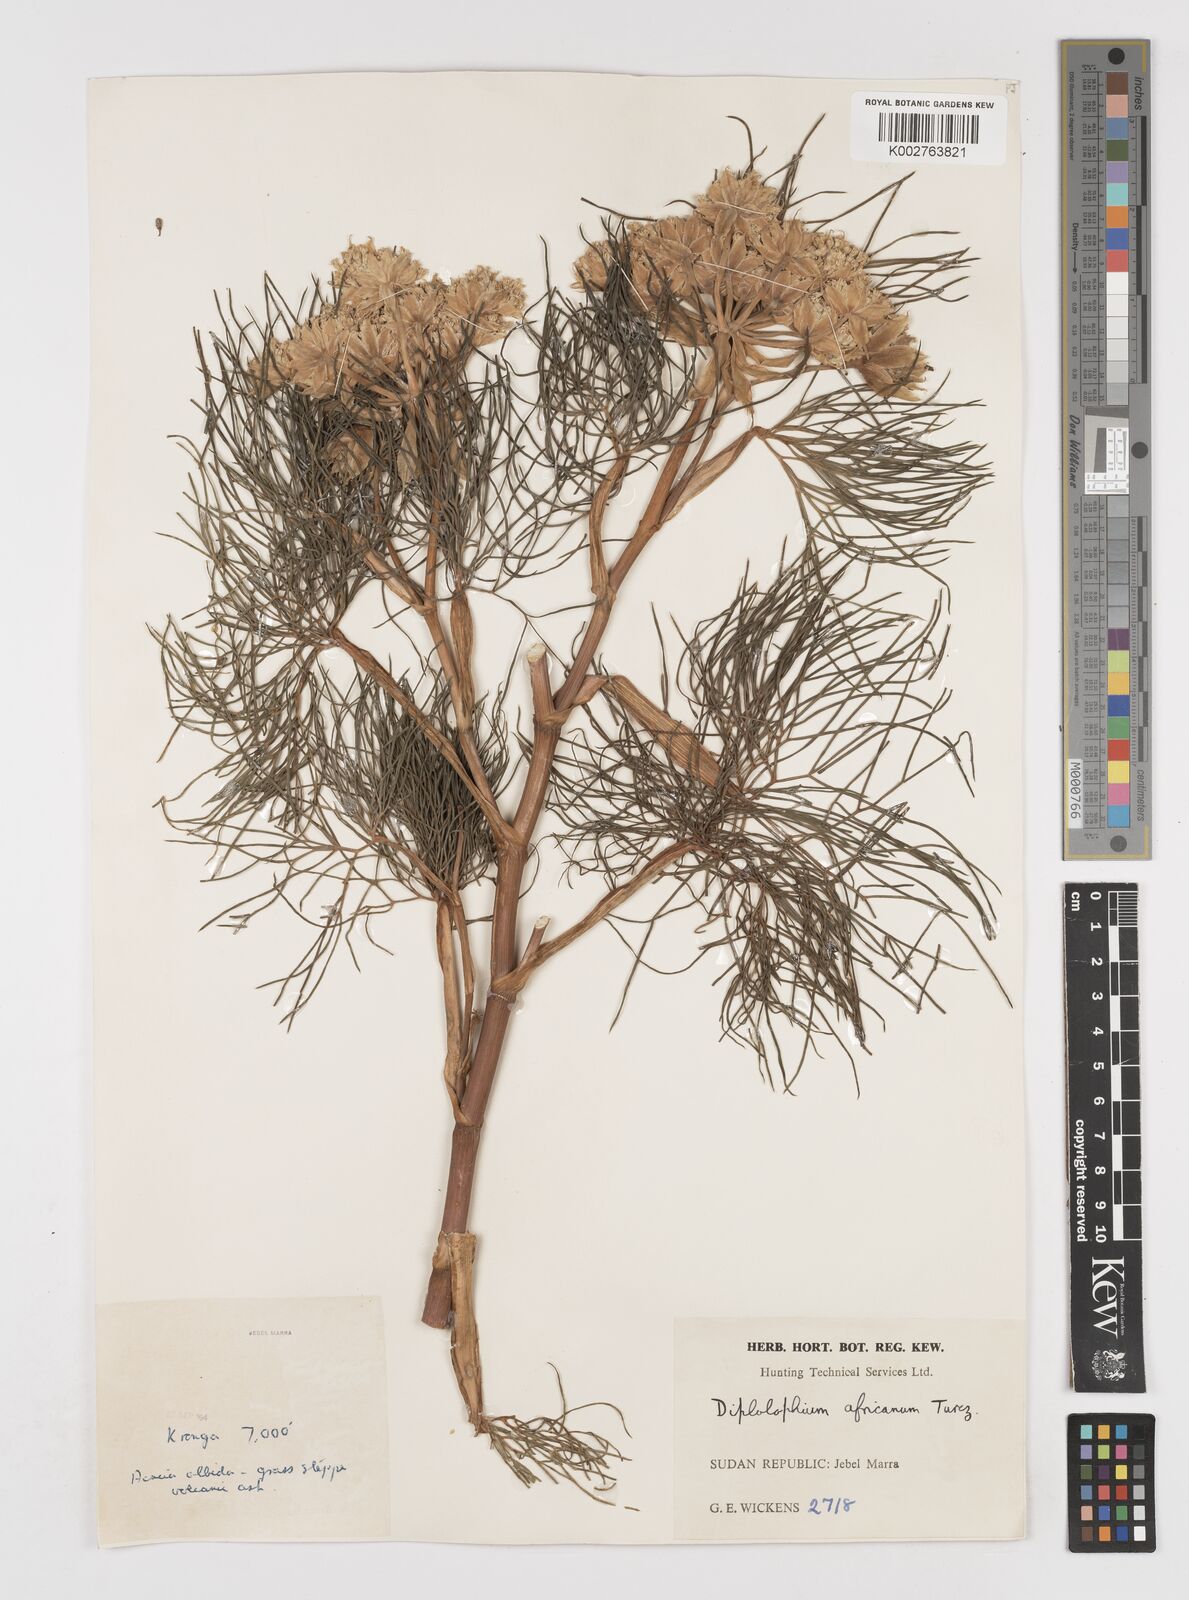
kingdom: Plantae
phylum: Tracheophyta
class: Magnoliopsida
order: Apiales
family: Apiaceae
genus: Diplolophium
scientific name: Diplolophium africanum
